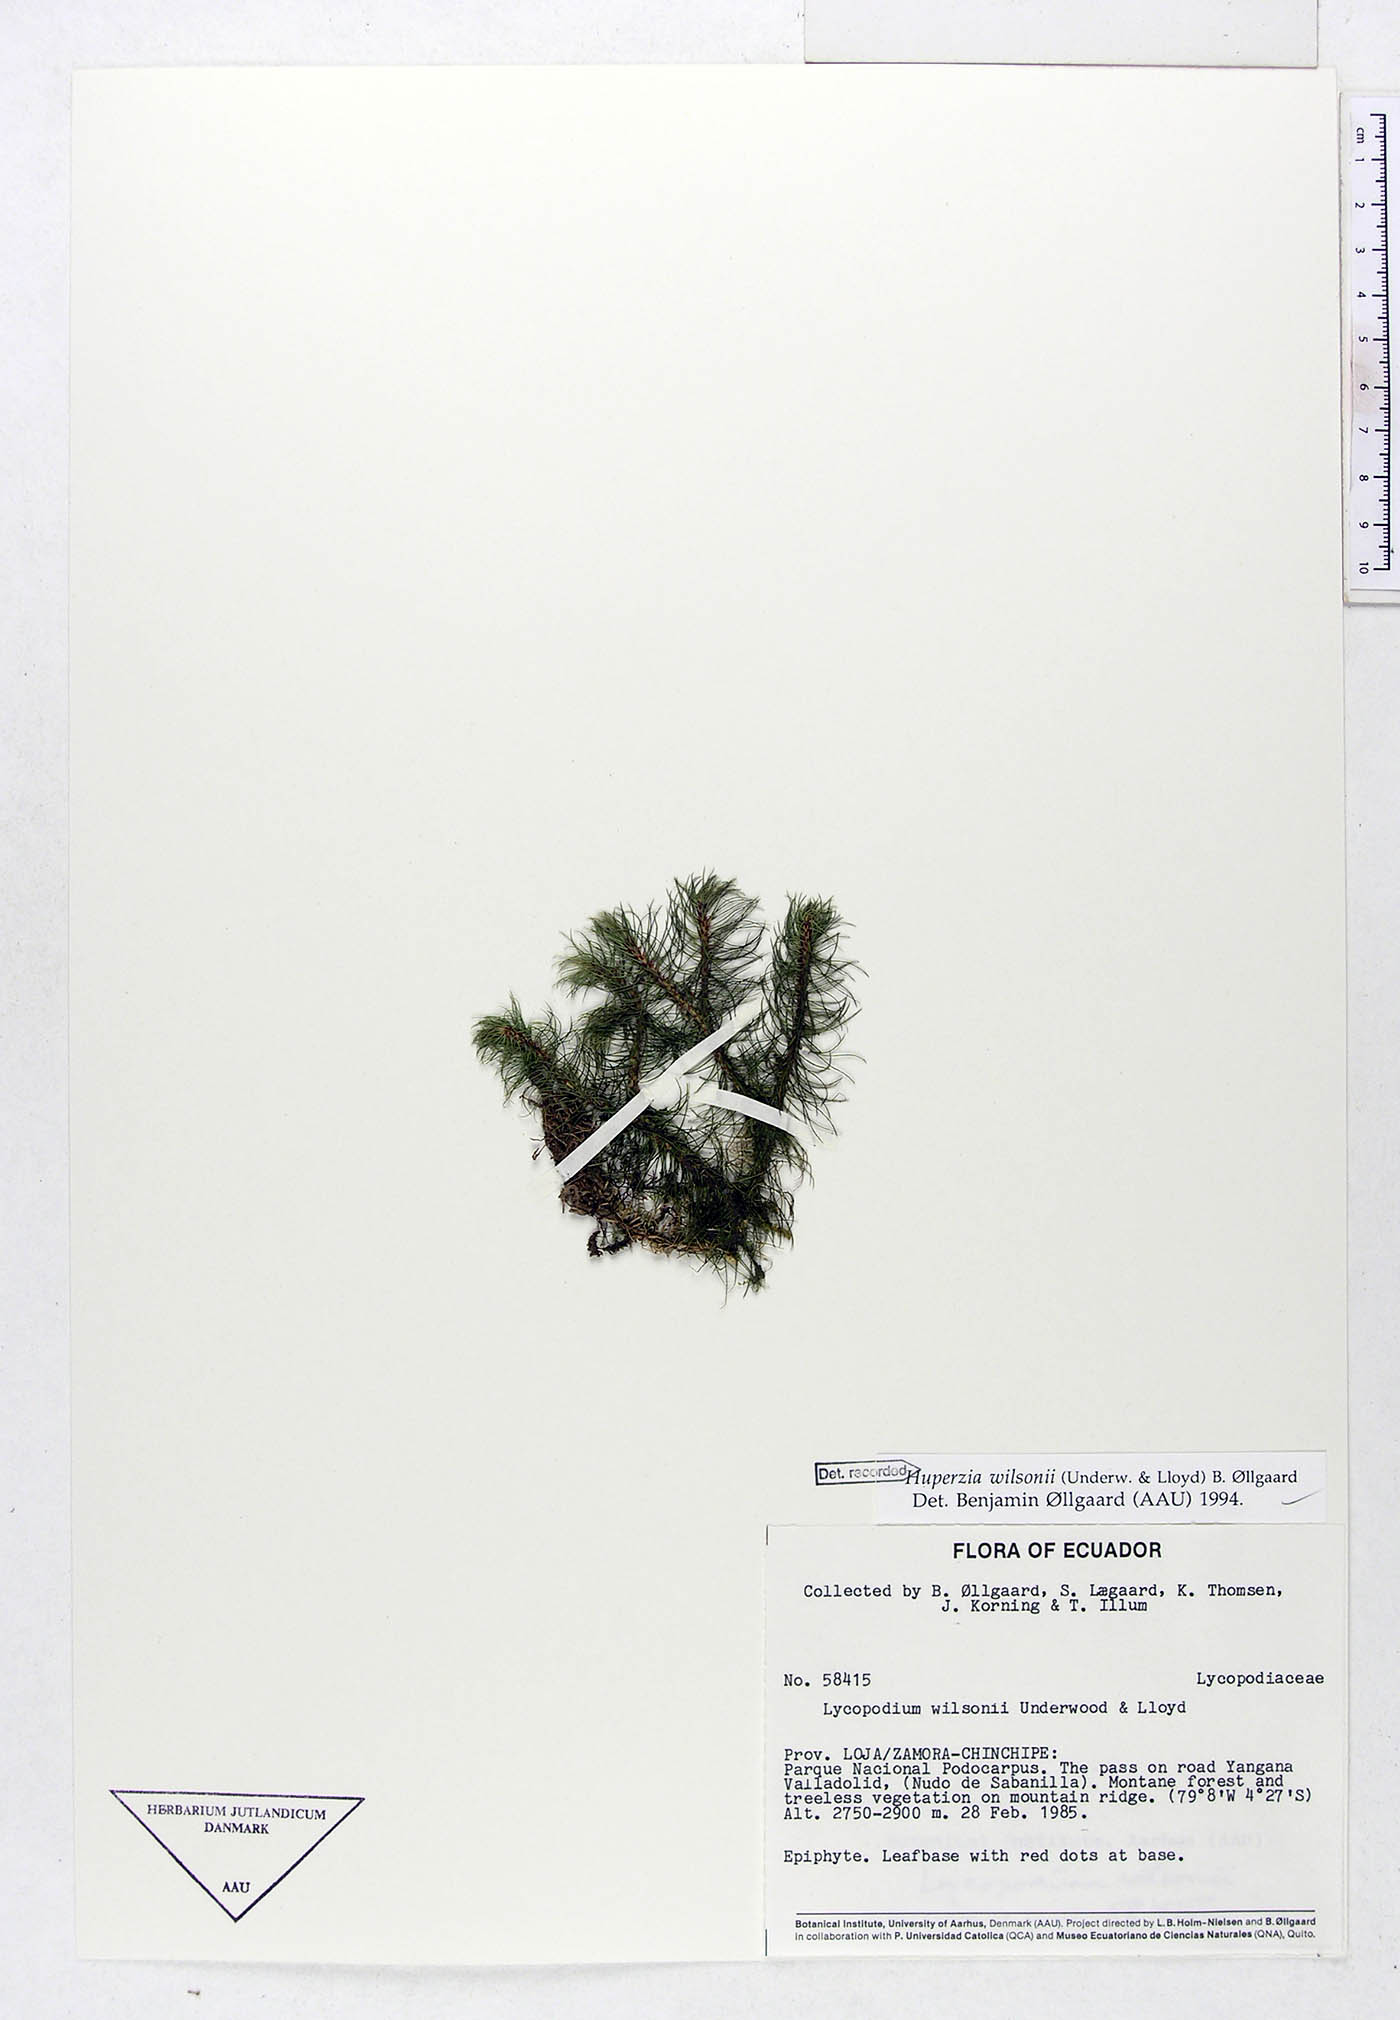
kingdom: Plantae
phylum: Tracheophyta
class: Lycopodiopsida
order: Lycopodiales
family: Lycopodiaceae
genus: Phlegmariurus
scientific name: Phlegmariurus wilsonii
